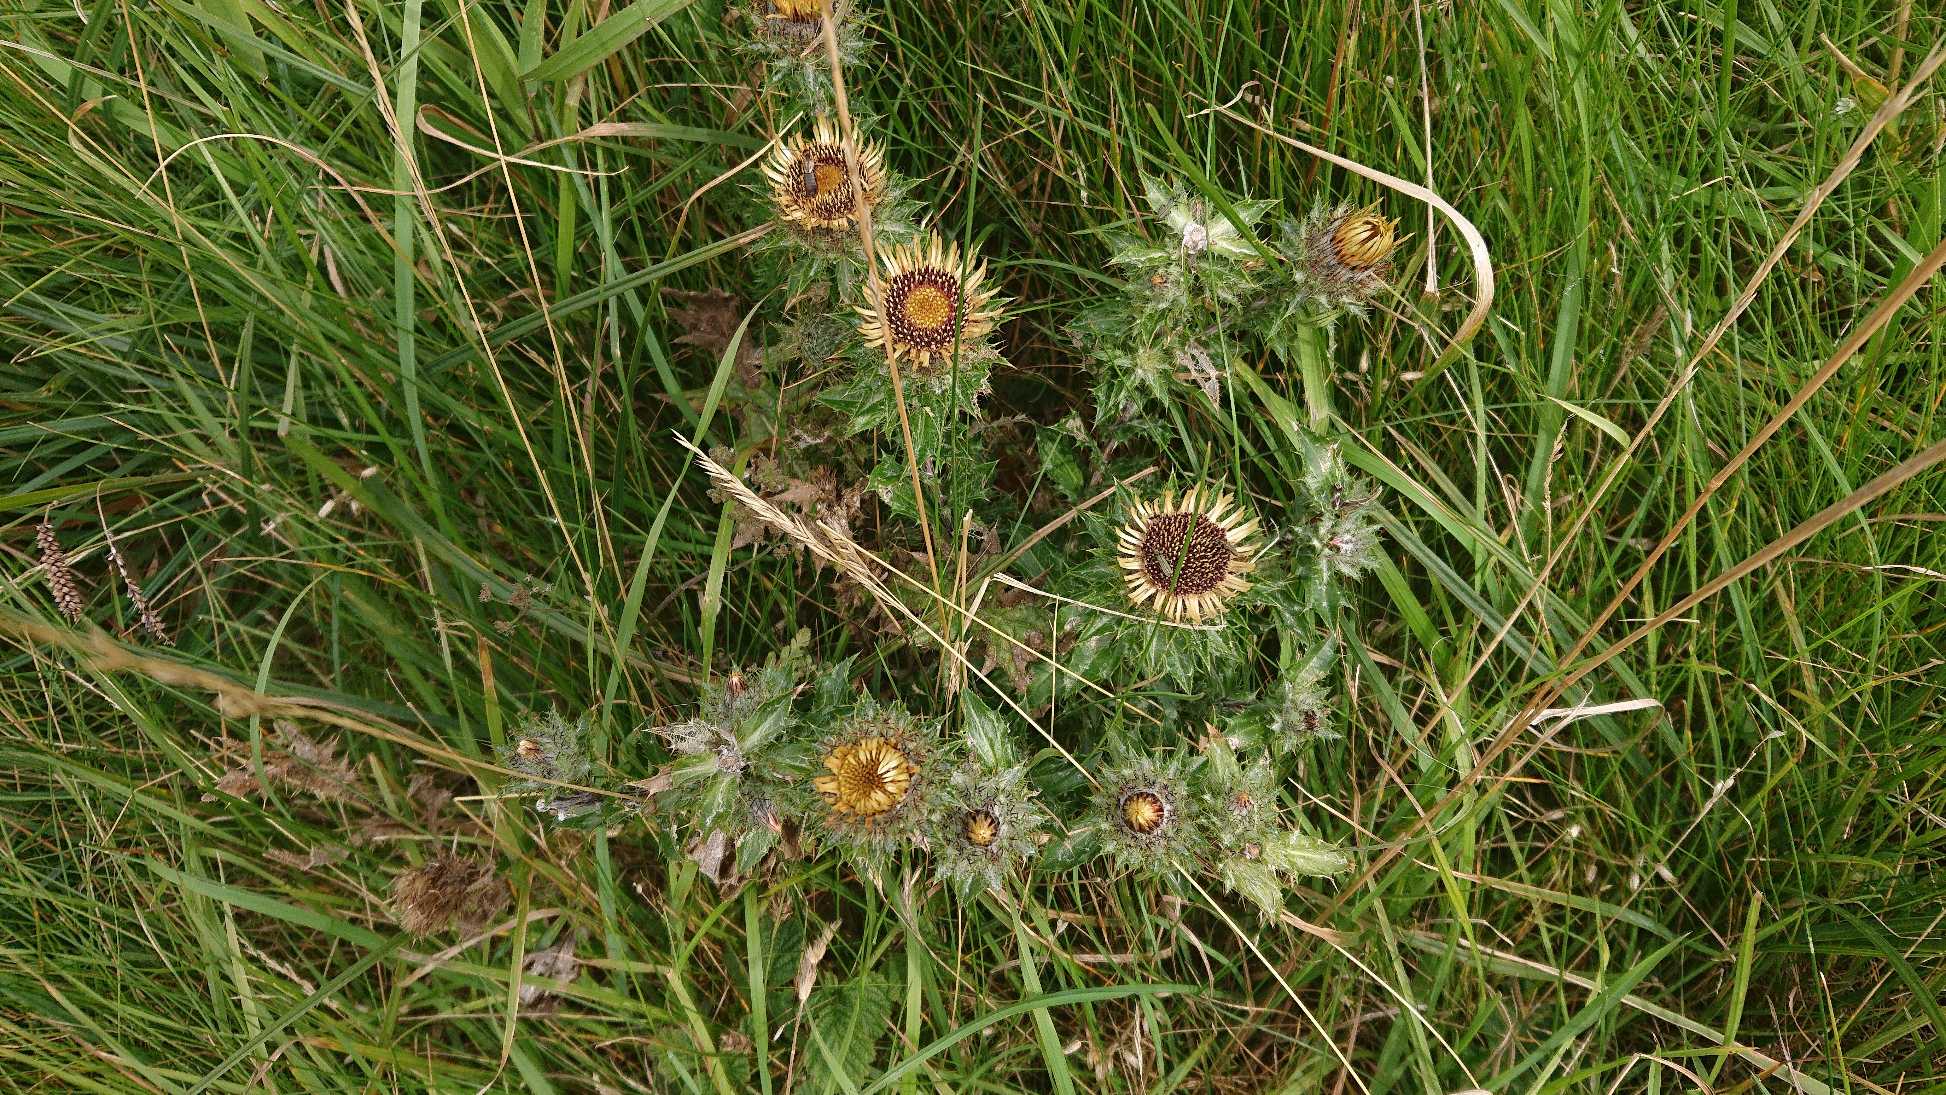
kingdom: Plantae
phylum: Tracheophyta
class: Magnoliopsida
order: Asterales
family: Asteraceae
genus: Carlina
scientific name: Carlina vulgaris
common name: Bakketidsel
